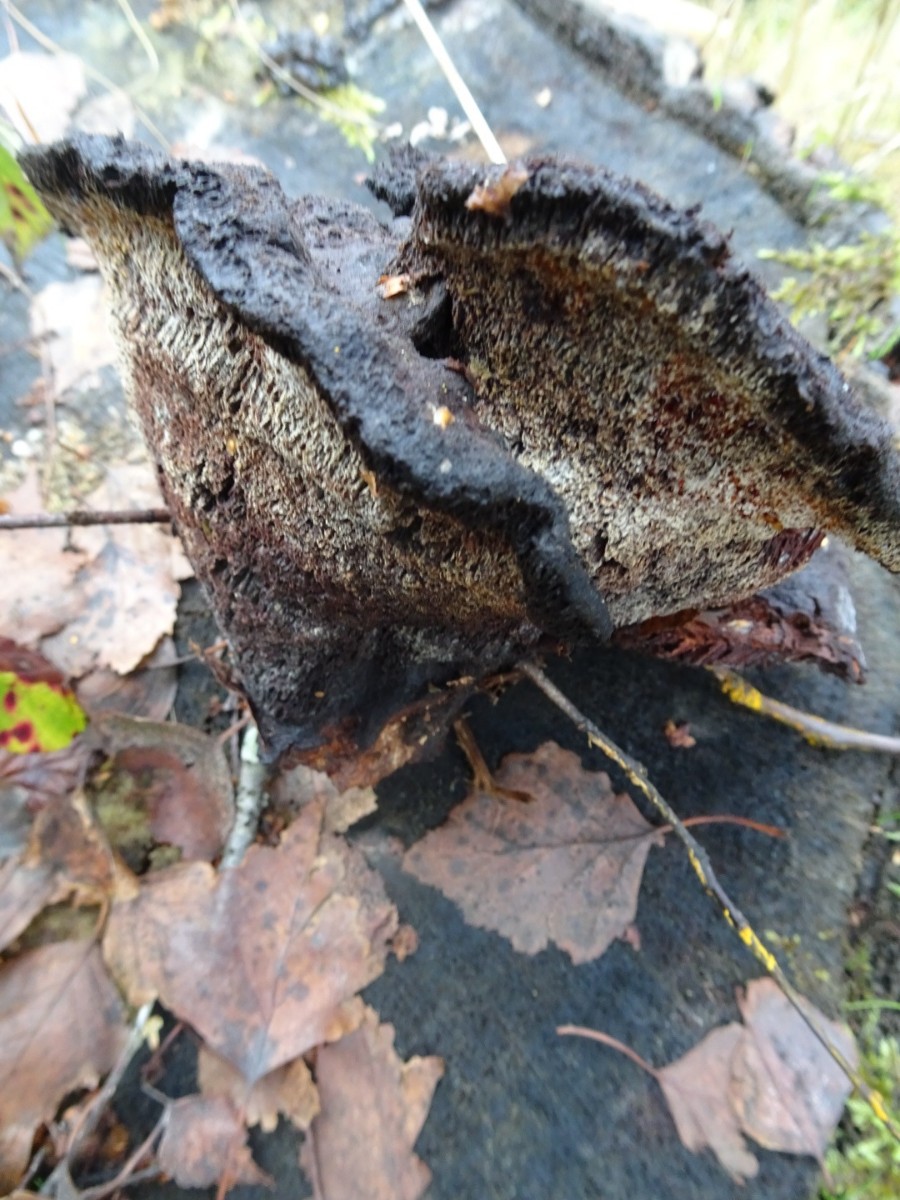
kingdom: Fungi
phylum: Basidiomycota
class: Agaricomycetes
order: Polyporales
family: Laetiporaceae
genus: Phaeolus
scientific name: Phaeolus schweinitzii
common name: brunporesvamp
